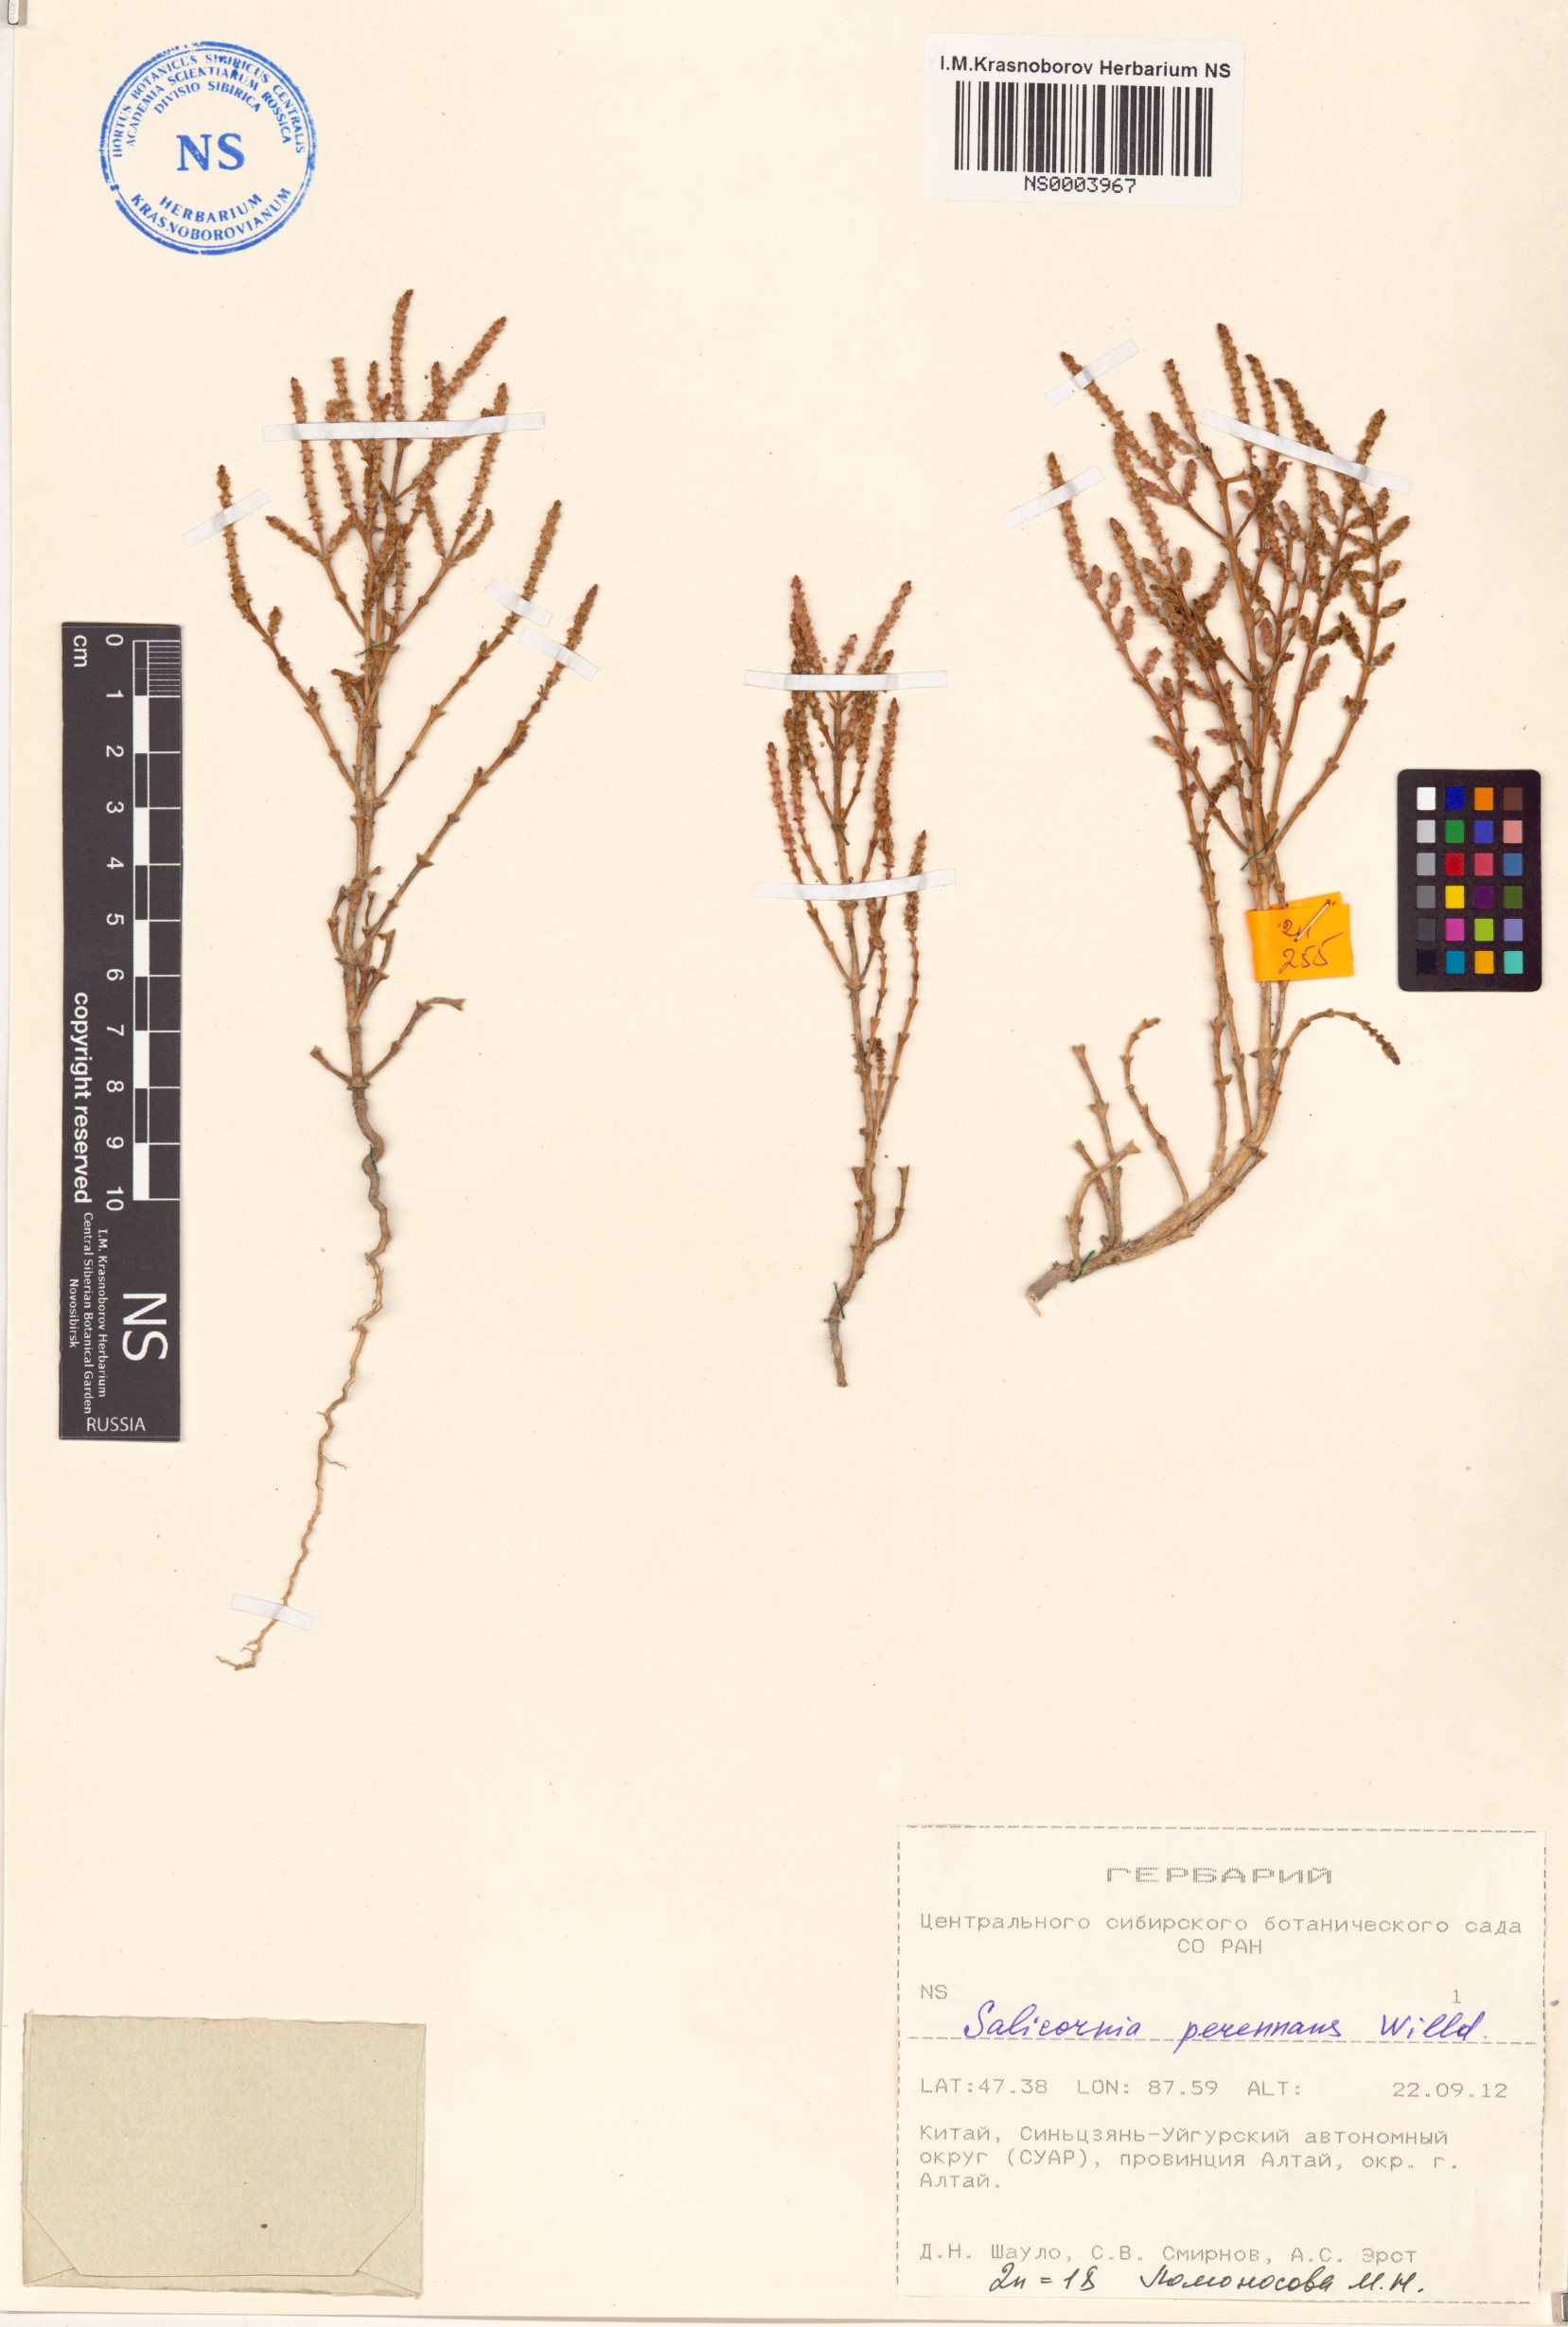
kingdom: Plantae
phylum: Tracheophyta
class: Magnoliopsida
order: Caryophyllales
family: Amaranthaceae
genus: Salicornia
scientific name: Salicornia
